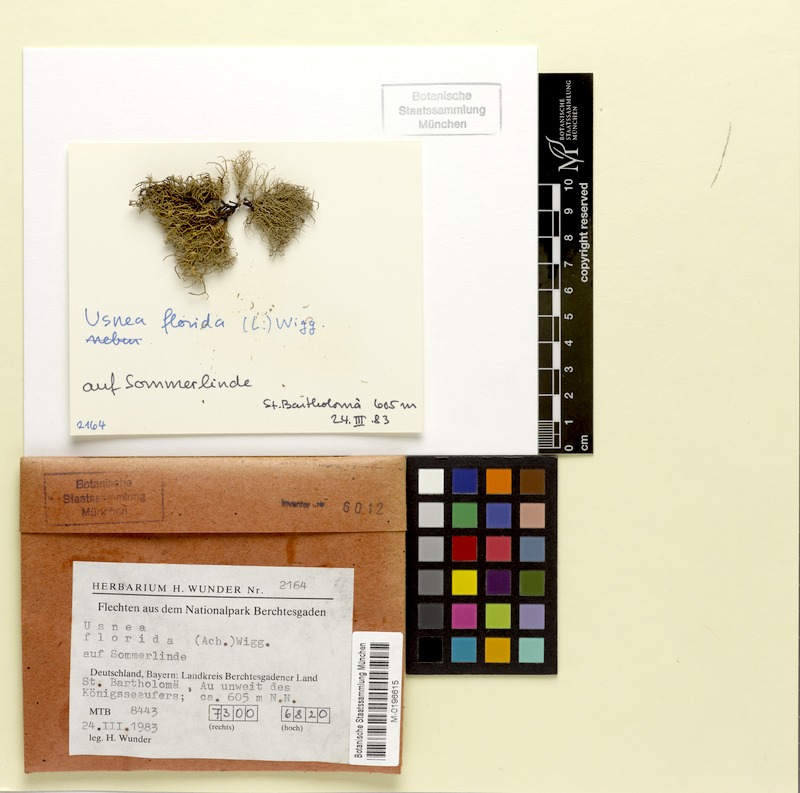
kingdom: Fungi
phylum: Ascomycota
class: Lecanoromycetes
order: Lecanorales
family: Parmeliaceae
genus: Usnea
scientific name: Usnea florida
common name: Witches' whiskers lichen
